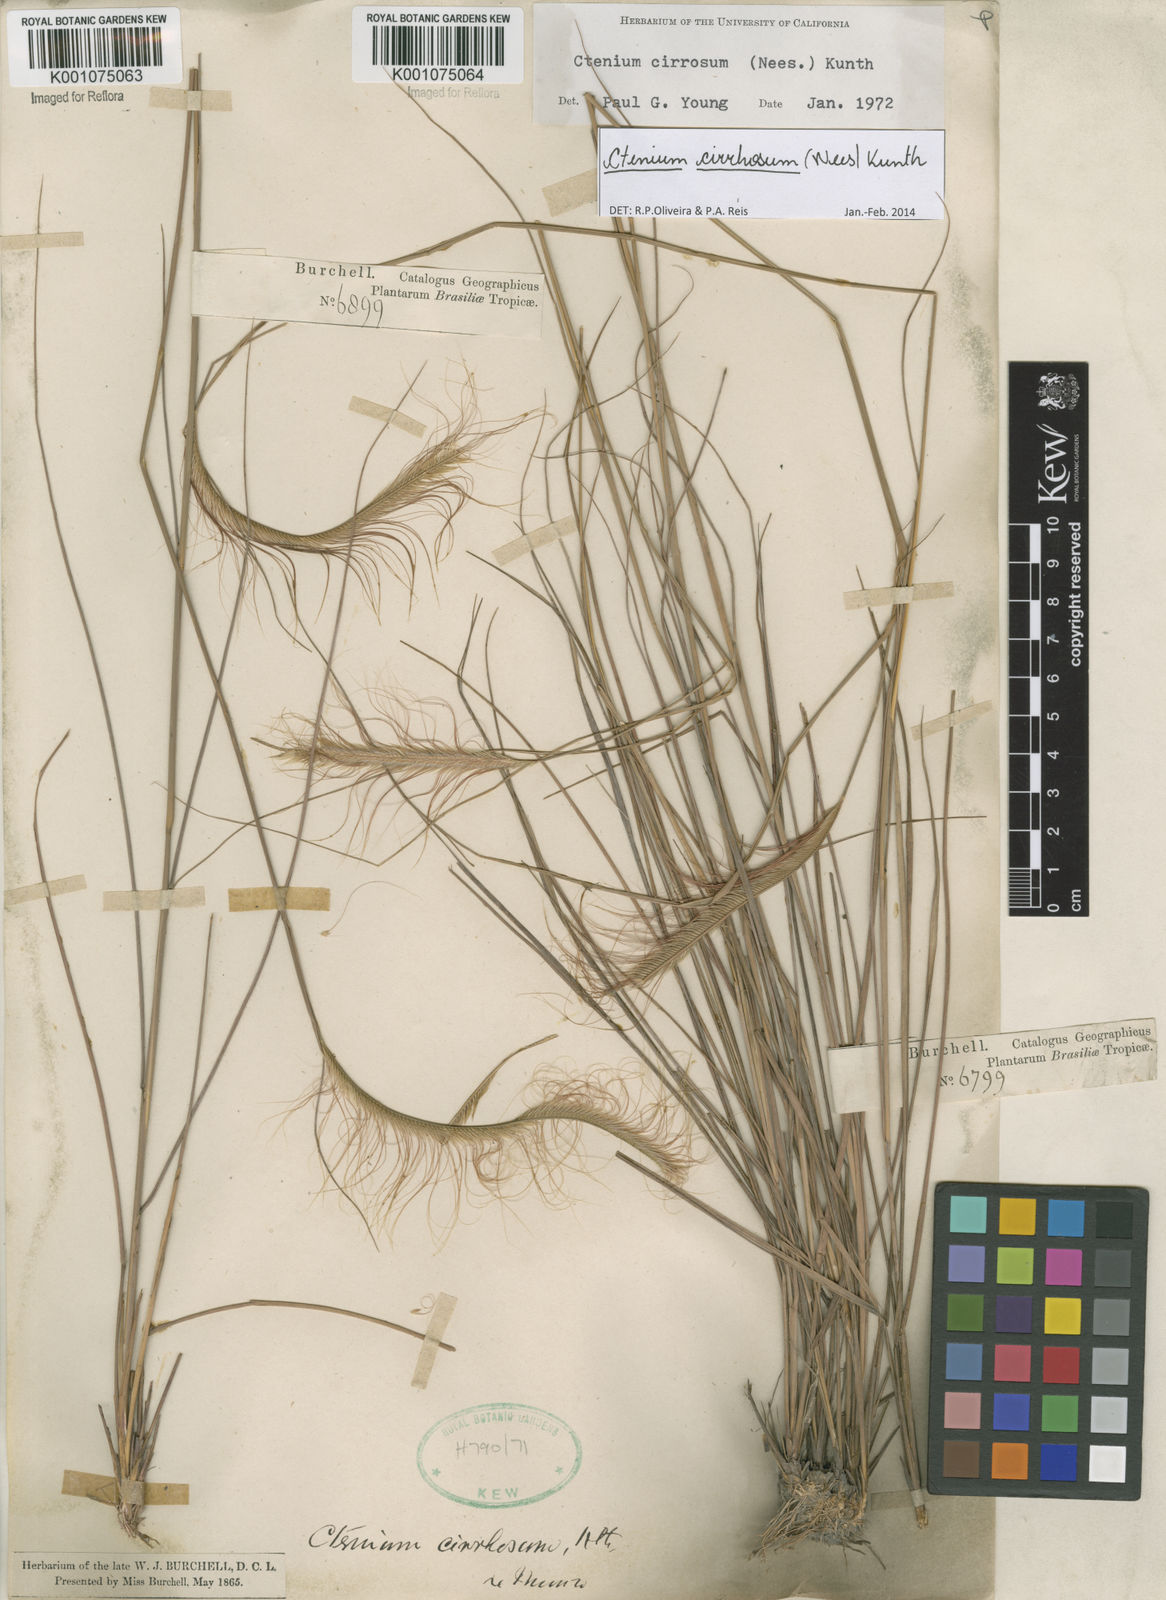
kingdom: Plantae
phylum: Tracheophyta
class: Liliopsida
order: Poales
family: Poaceae
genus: Ctenium
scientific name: Ctenium cirrhosum
